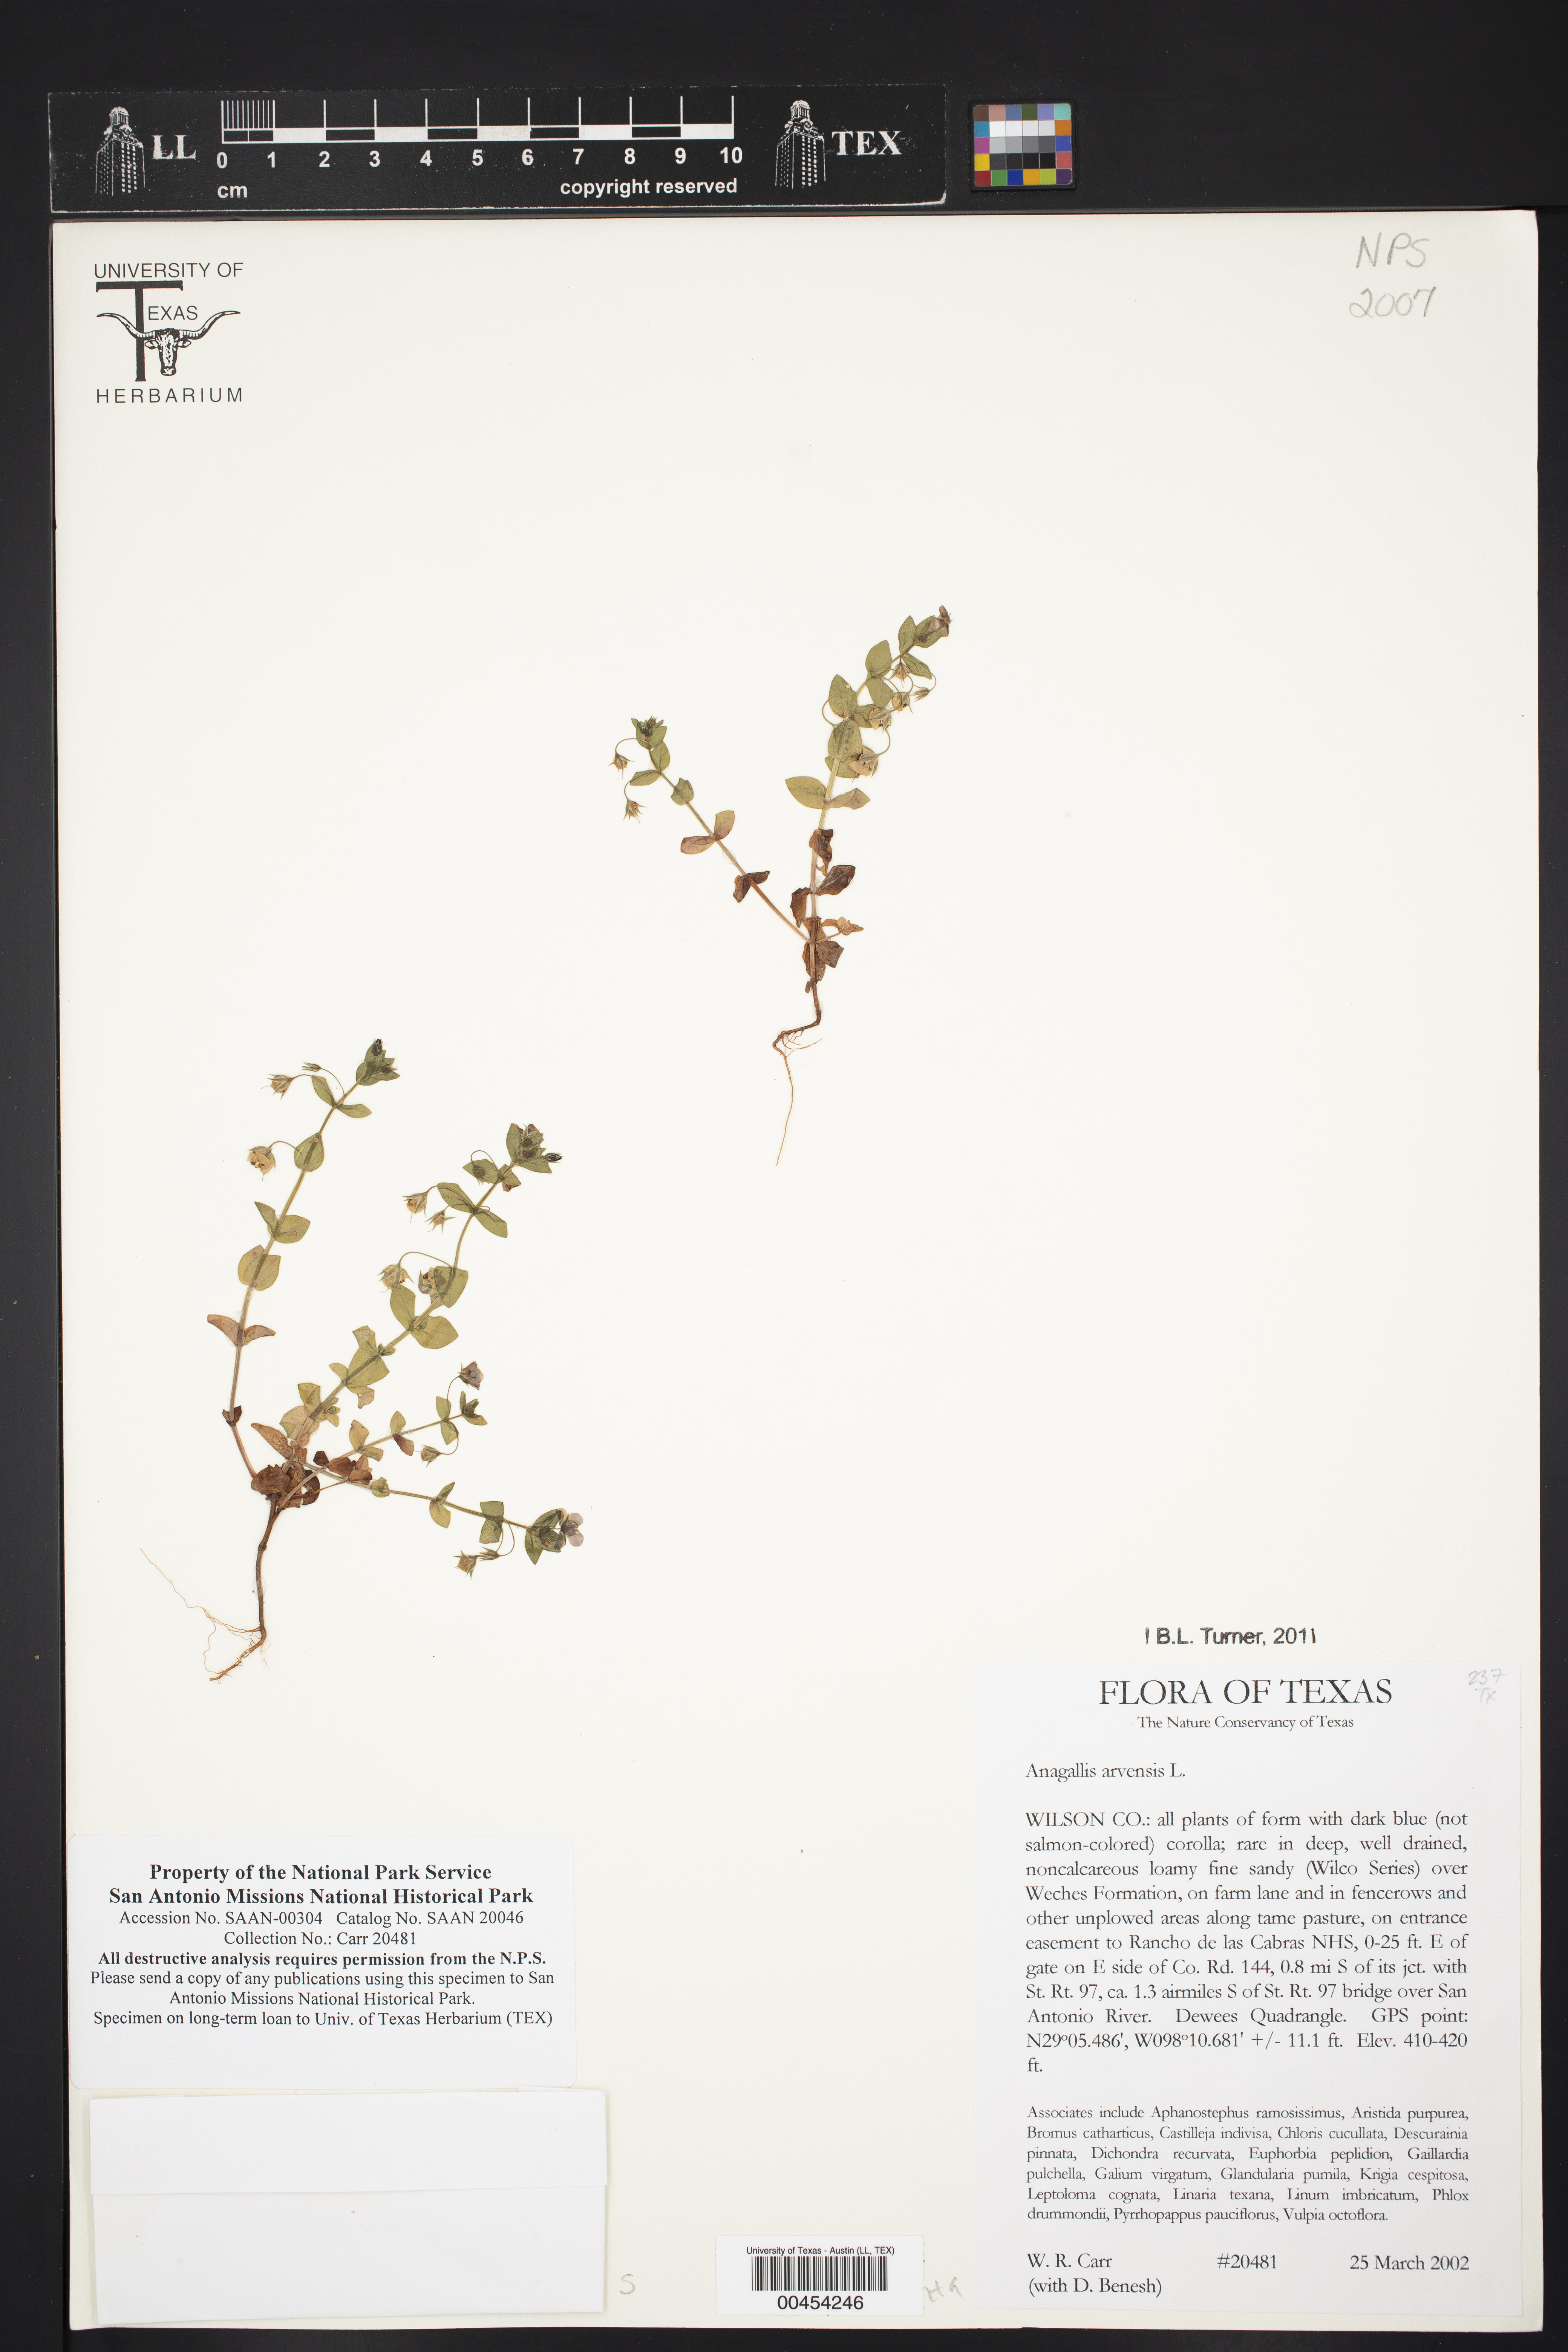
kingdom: Plantae
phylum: Tracheophyta
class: Magnoliopsida
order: Ericales
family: Primulaceae
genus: Lysimachia
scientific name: Lysimachia arvensis
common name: Scarlet pimpernel
